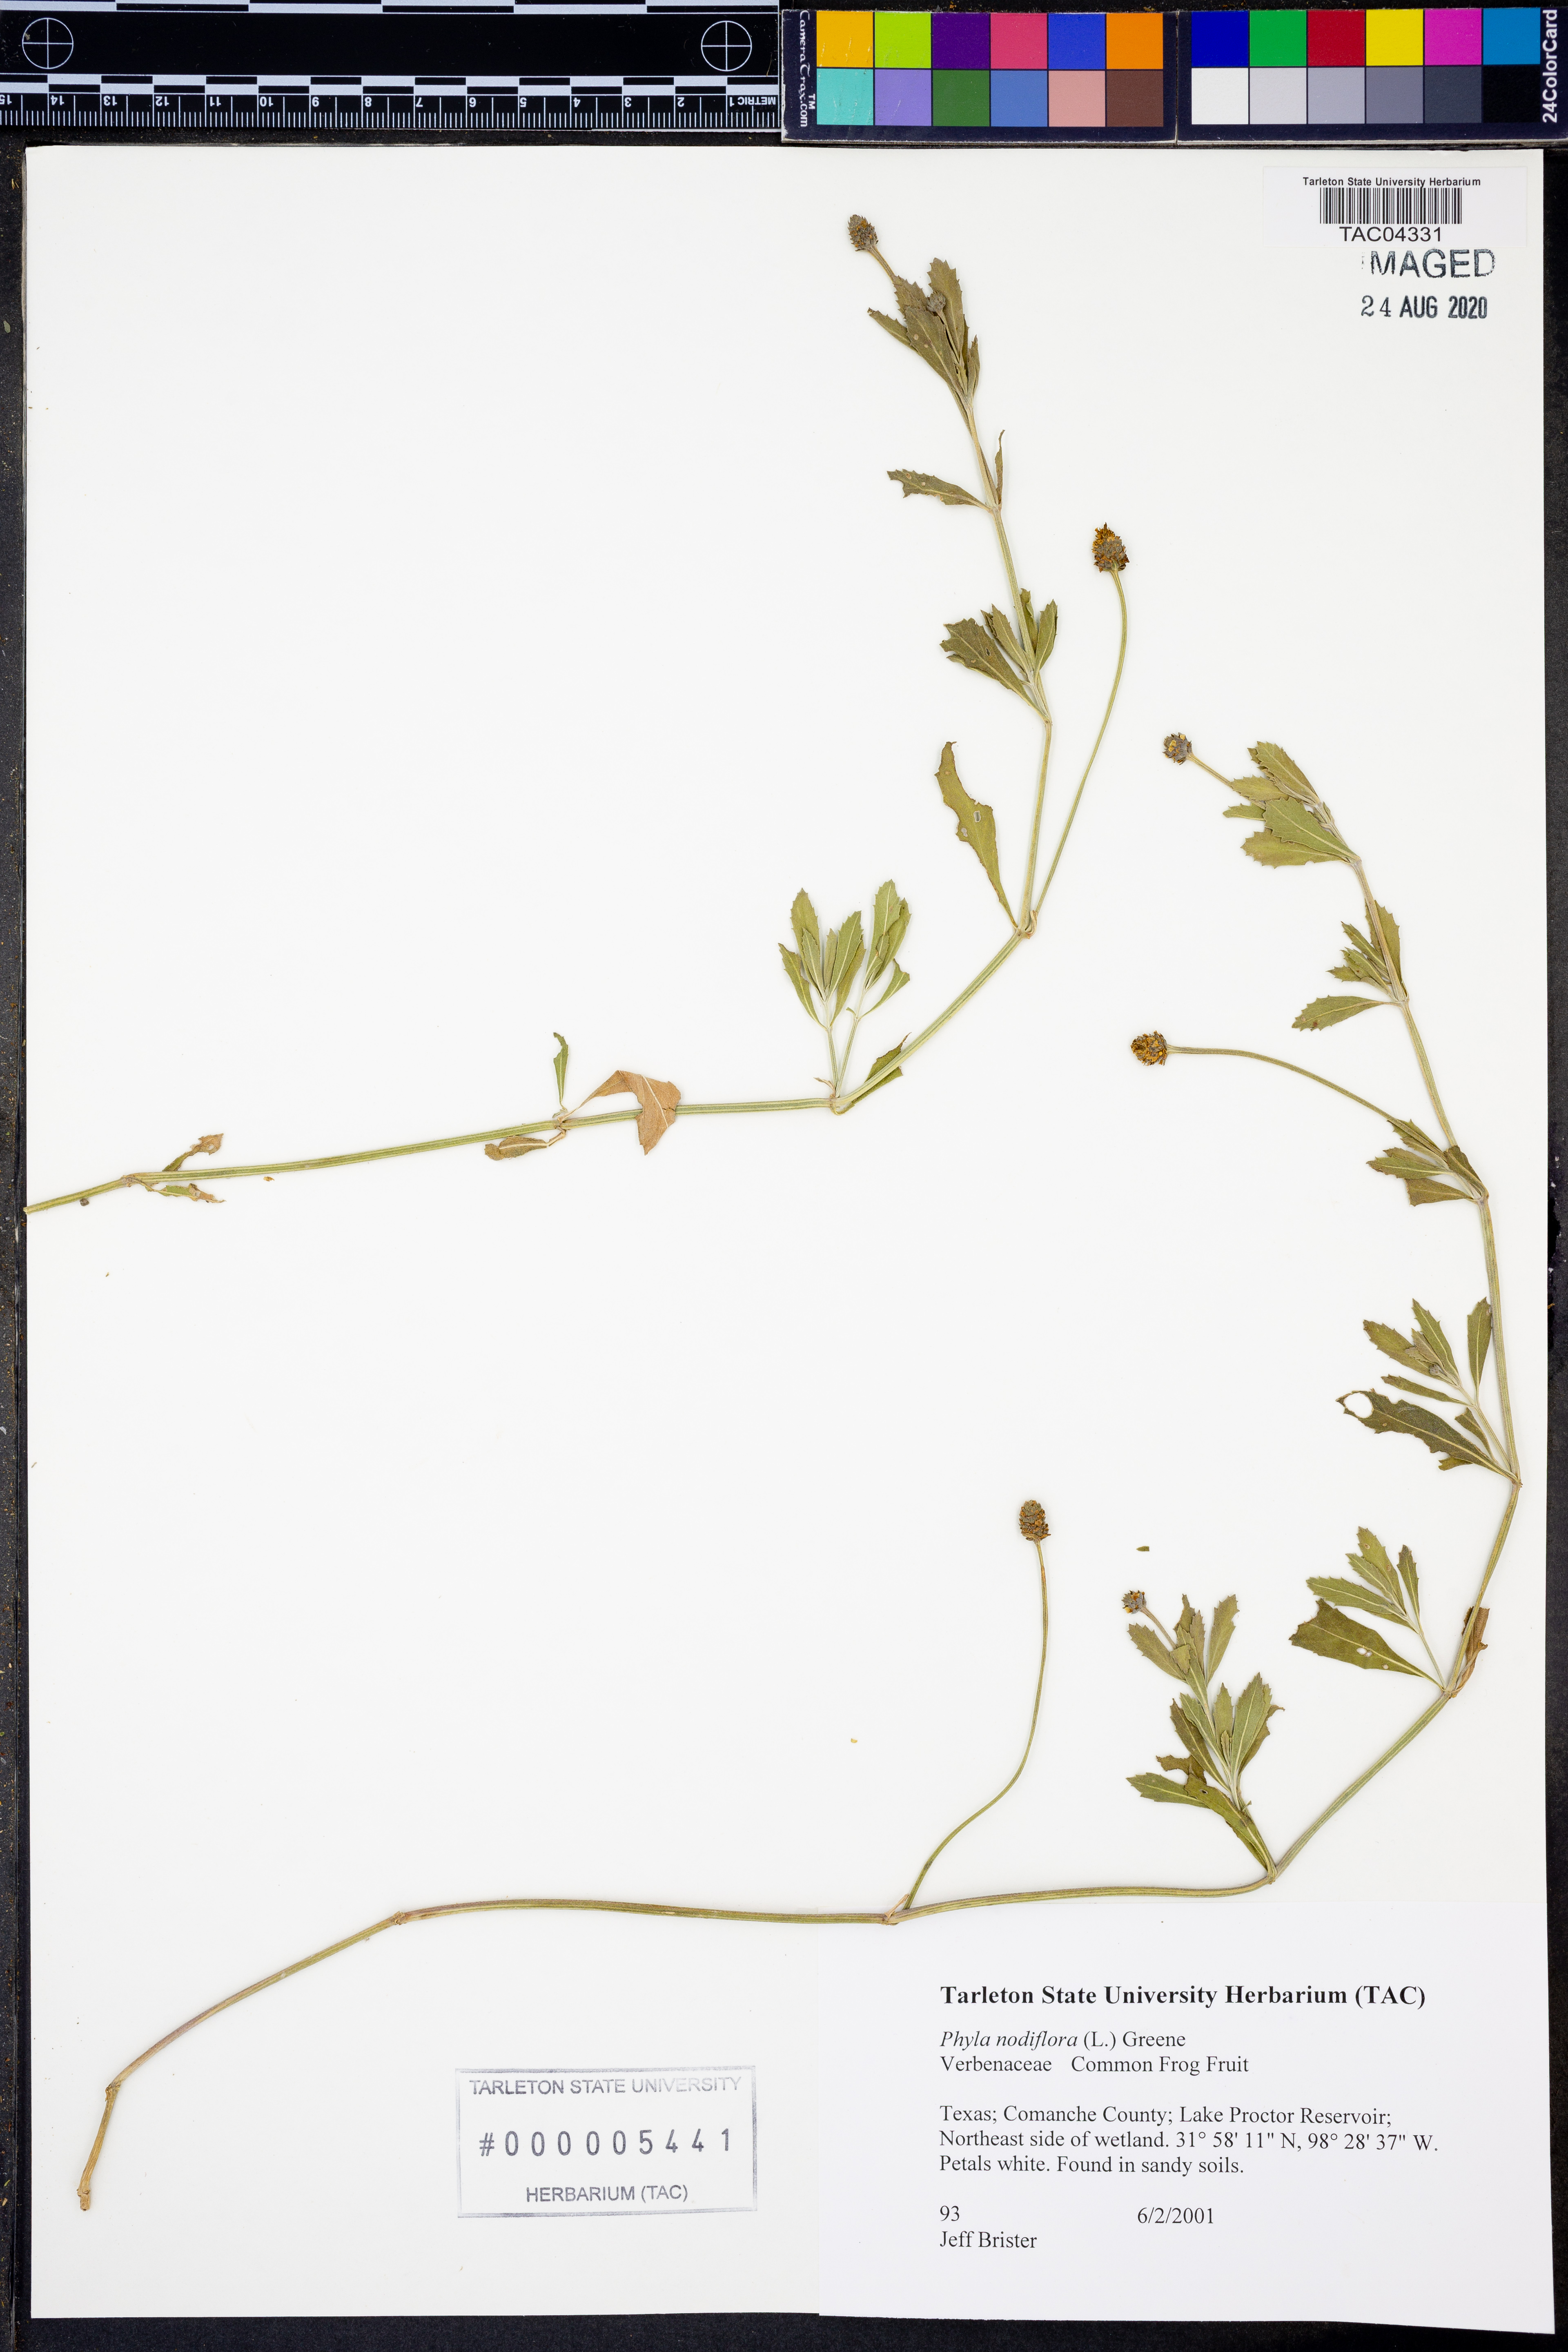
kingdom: Plantae
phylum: Tracheophyta
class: Magnoliopsida
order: Lamiales
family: Verbenaceae
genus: Phyla
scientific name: Phyla nodiflora
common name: Frogfruit
